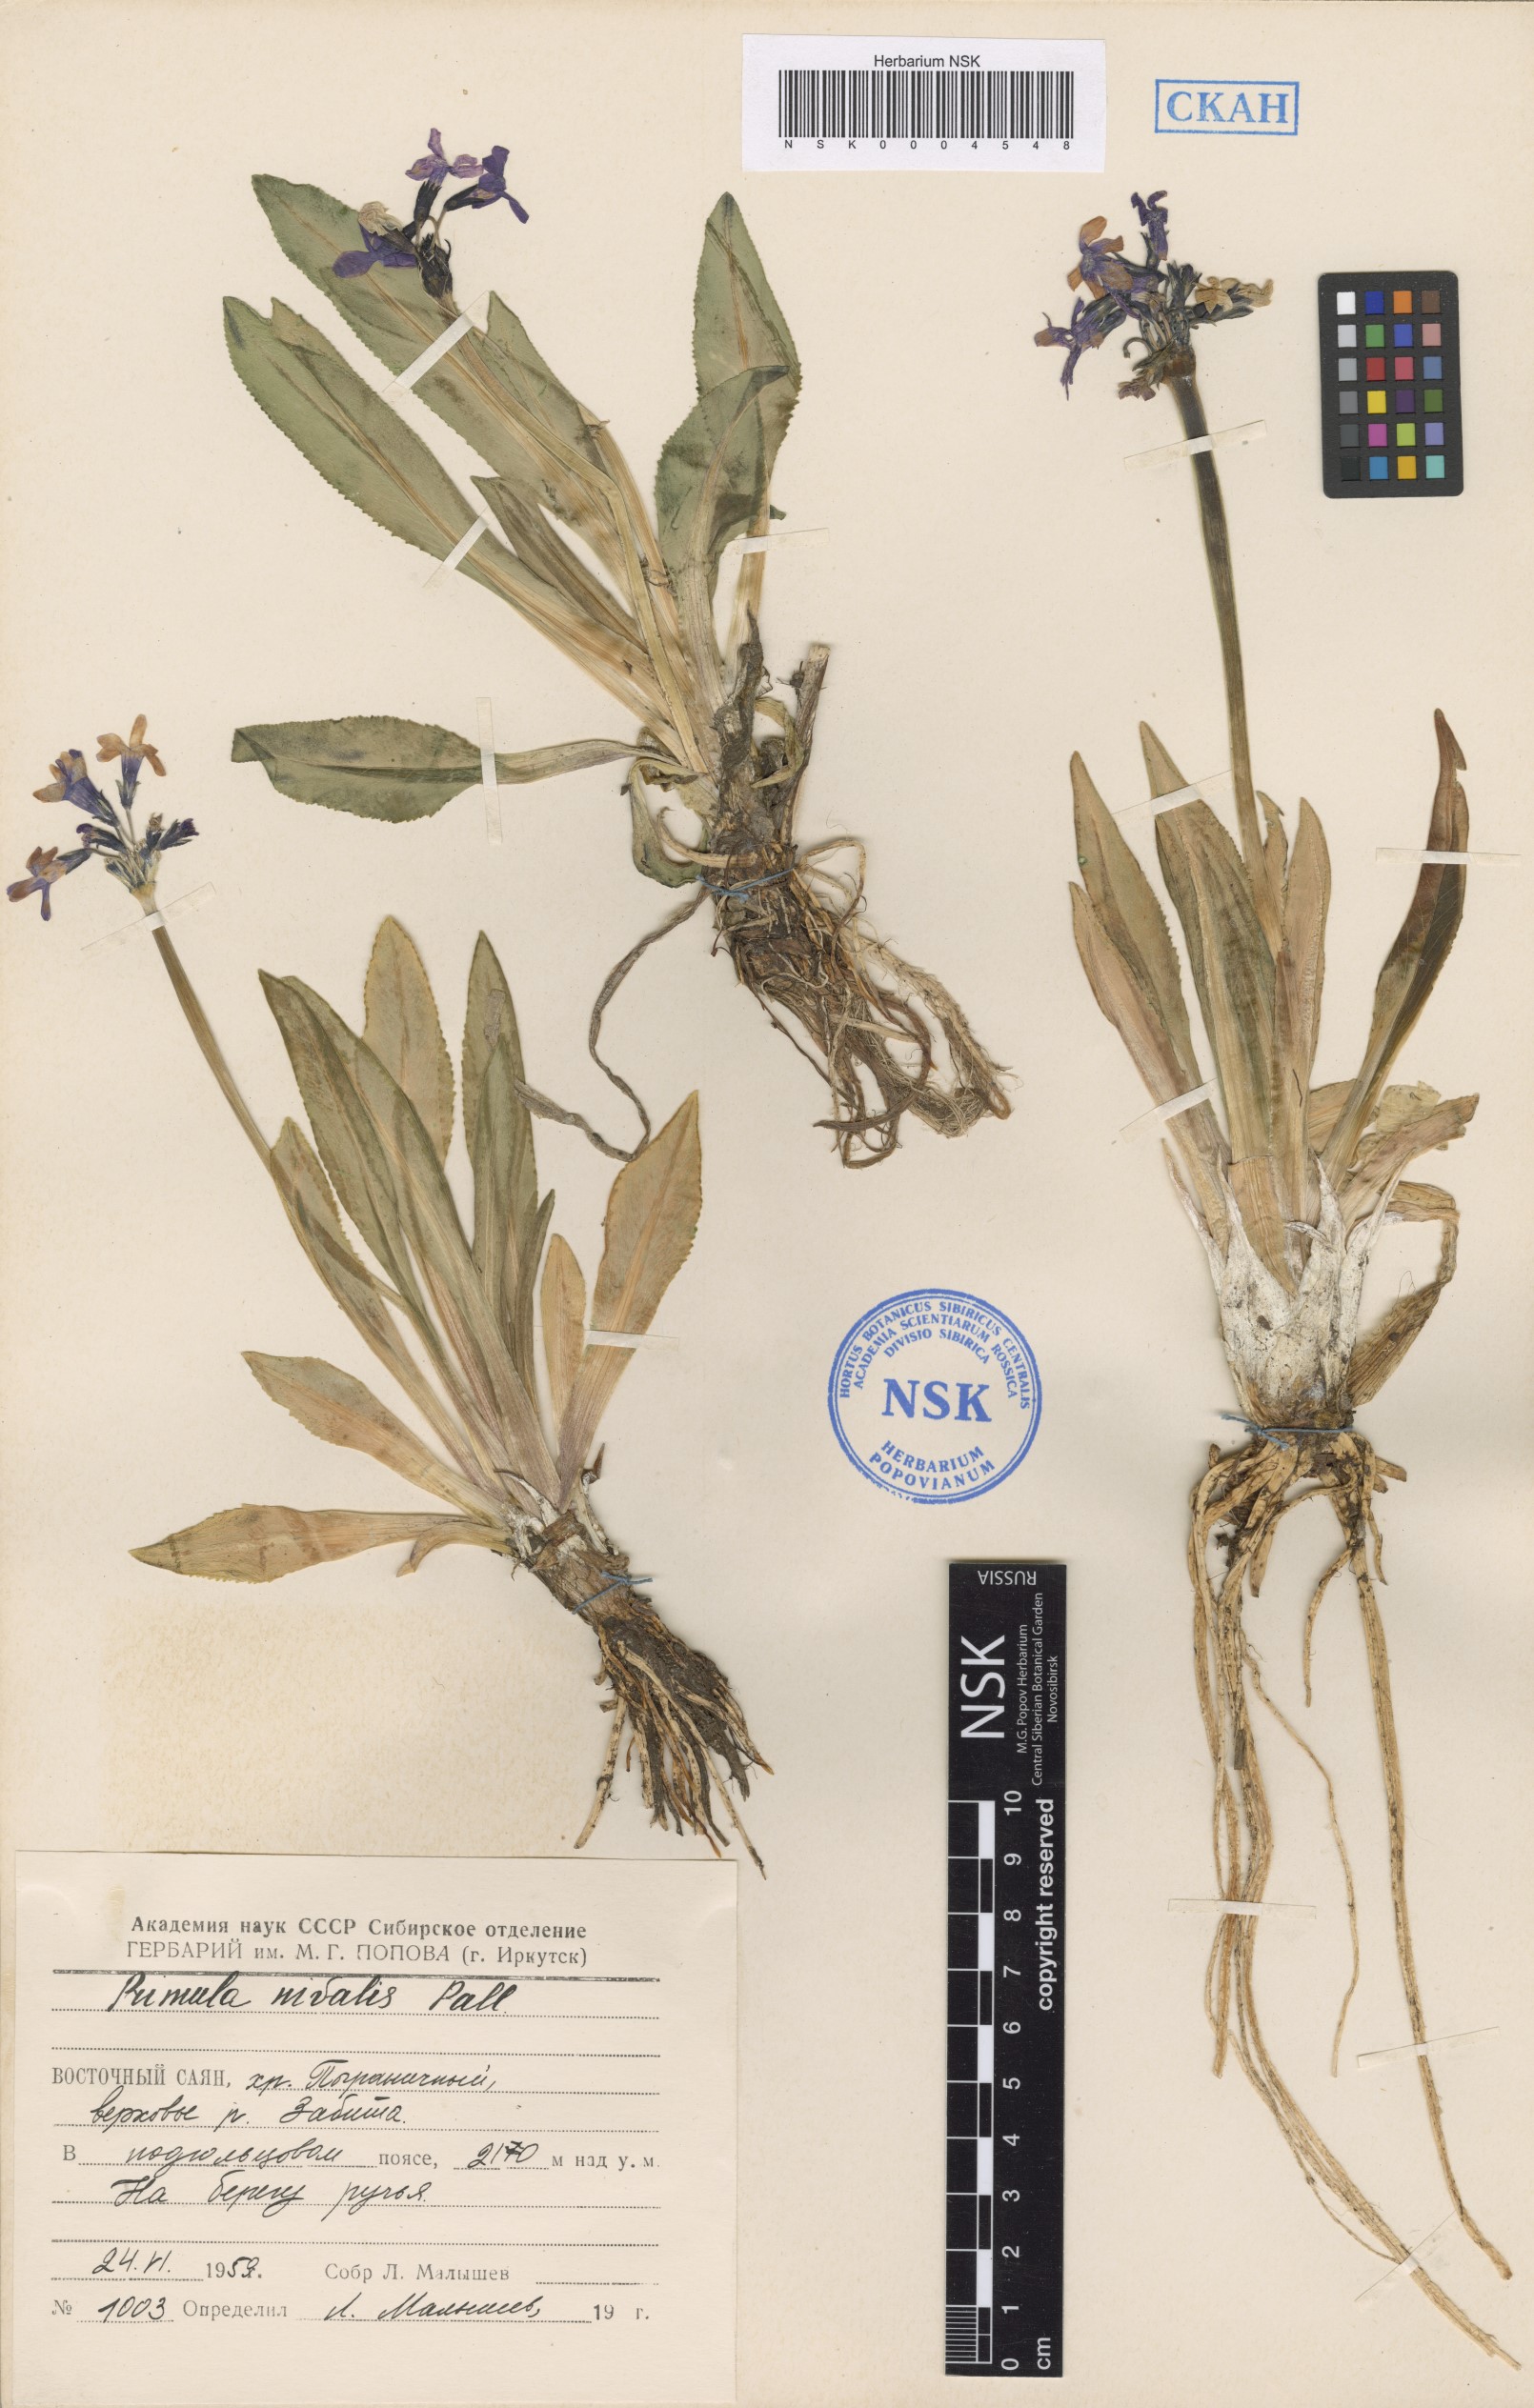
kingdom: Plantae
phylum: Tracheophyta
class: Magnoliopsida
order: Ericales
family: Primulaceae
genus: Primula
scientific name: Primula nivalis
